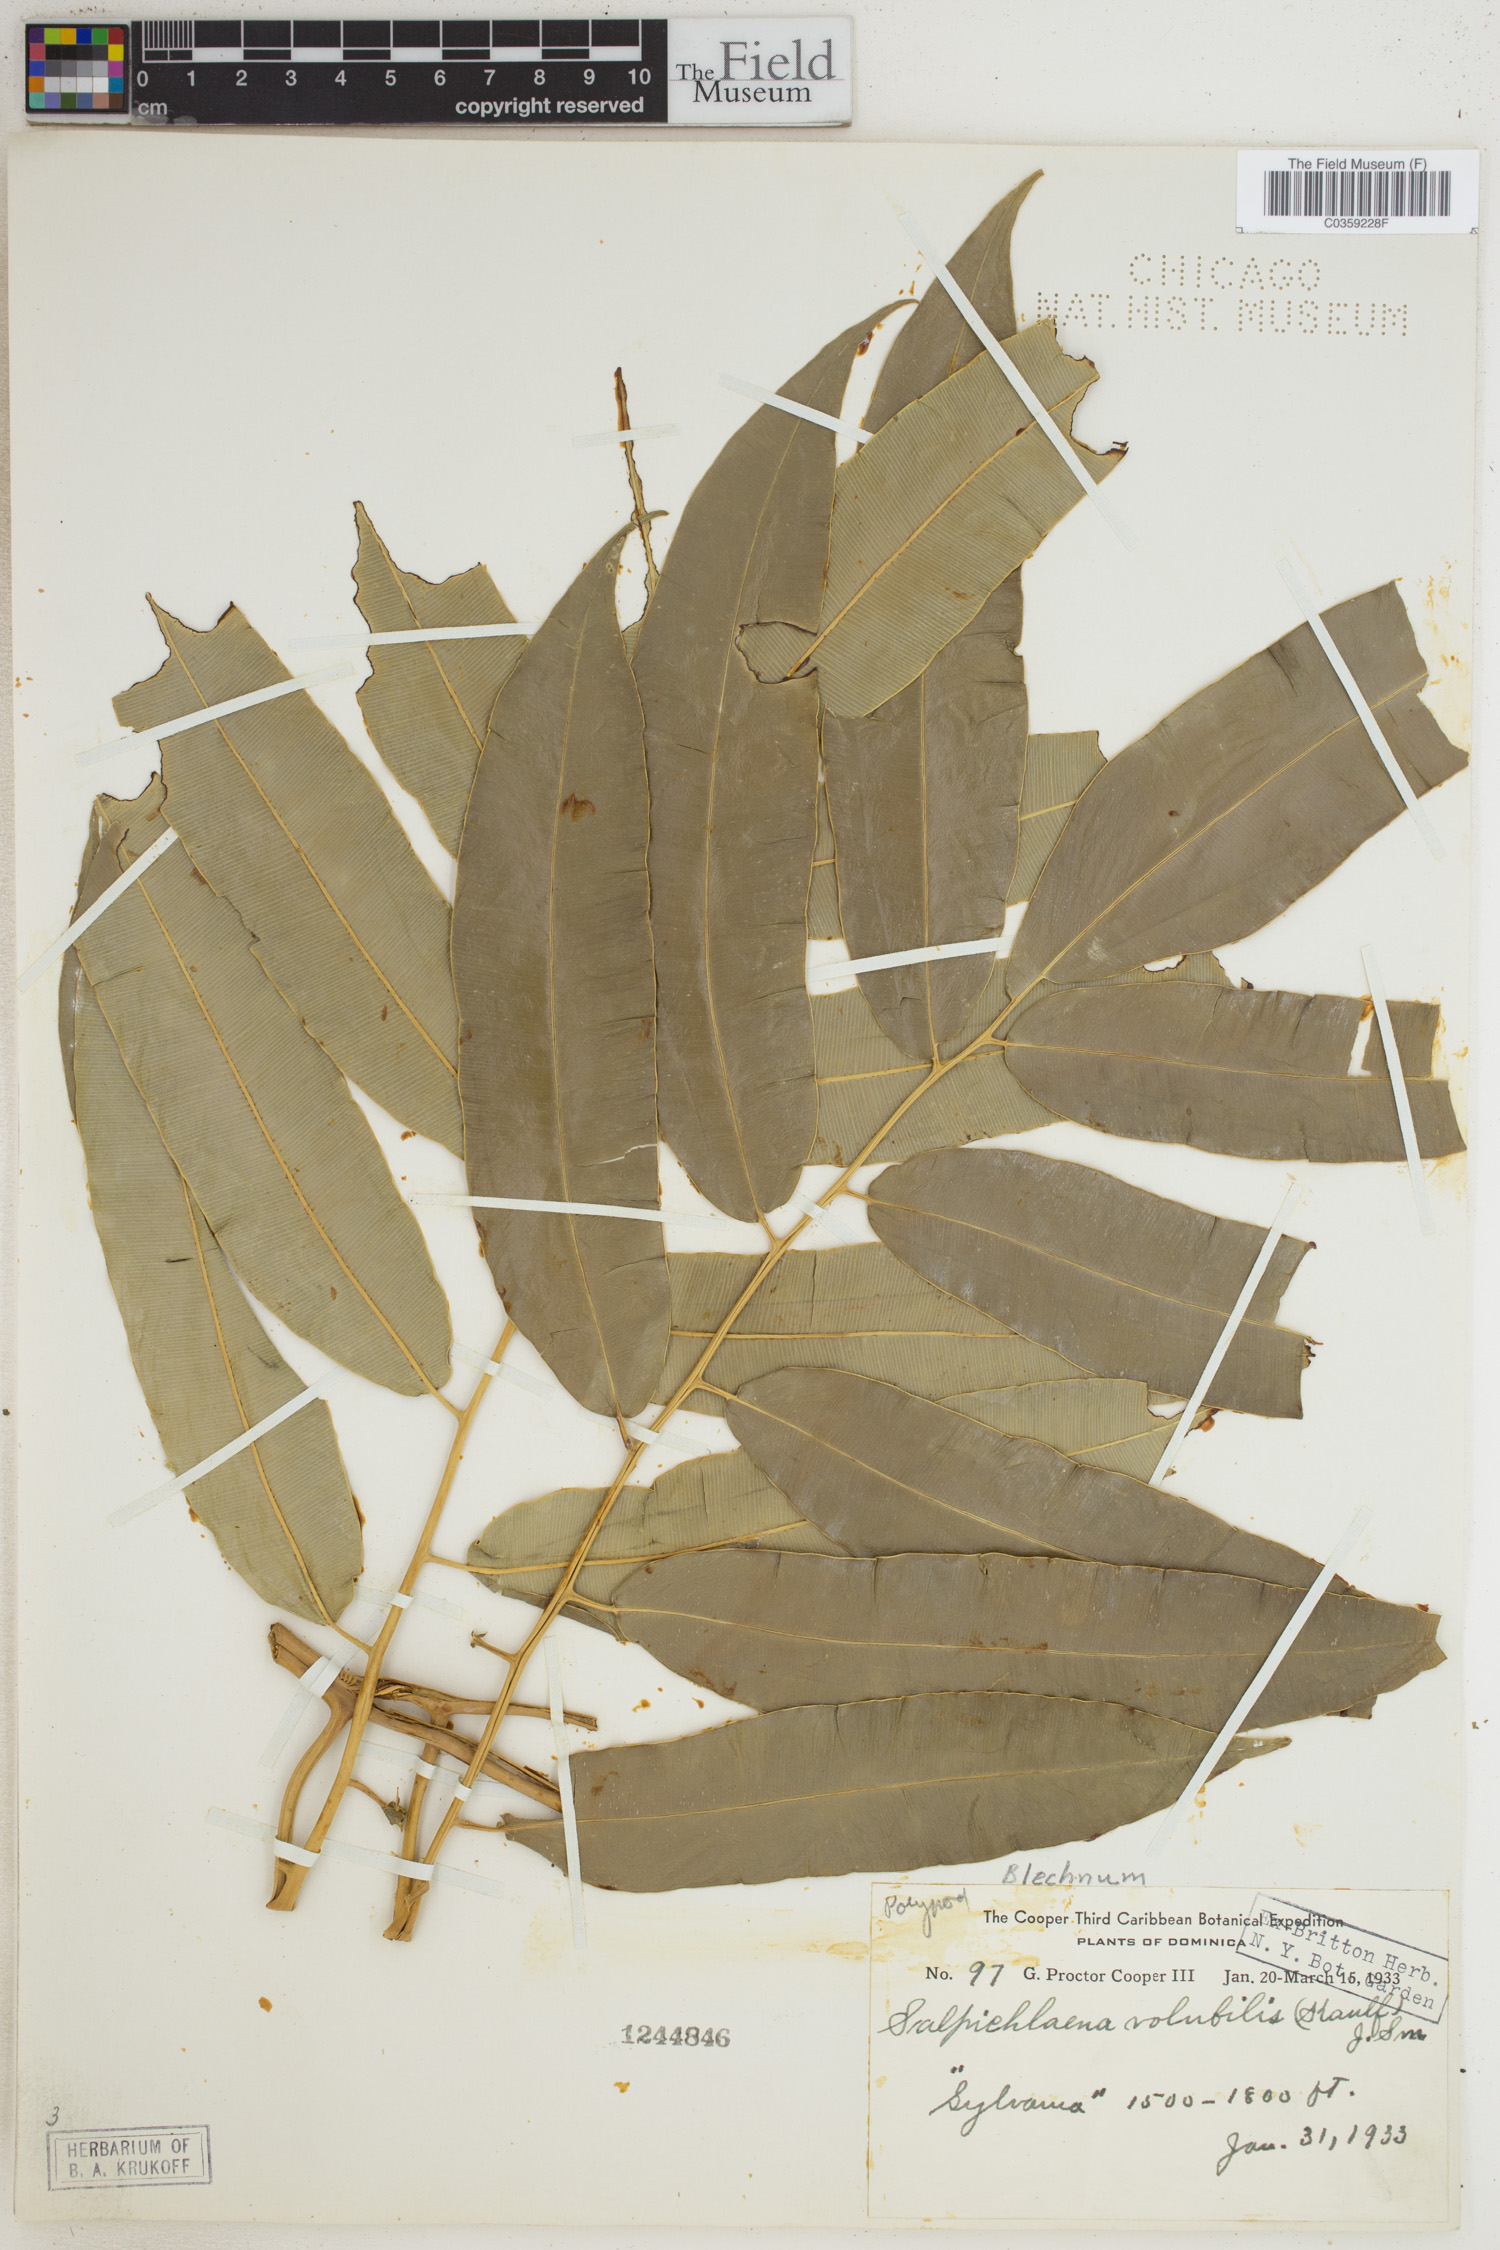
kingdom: Plantae
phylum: Tracheophyta
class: Polypodiopsida
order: Polypodiales
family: Blechnaceae
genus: Salpichlaena
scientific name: Salpichlaena volubilis
